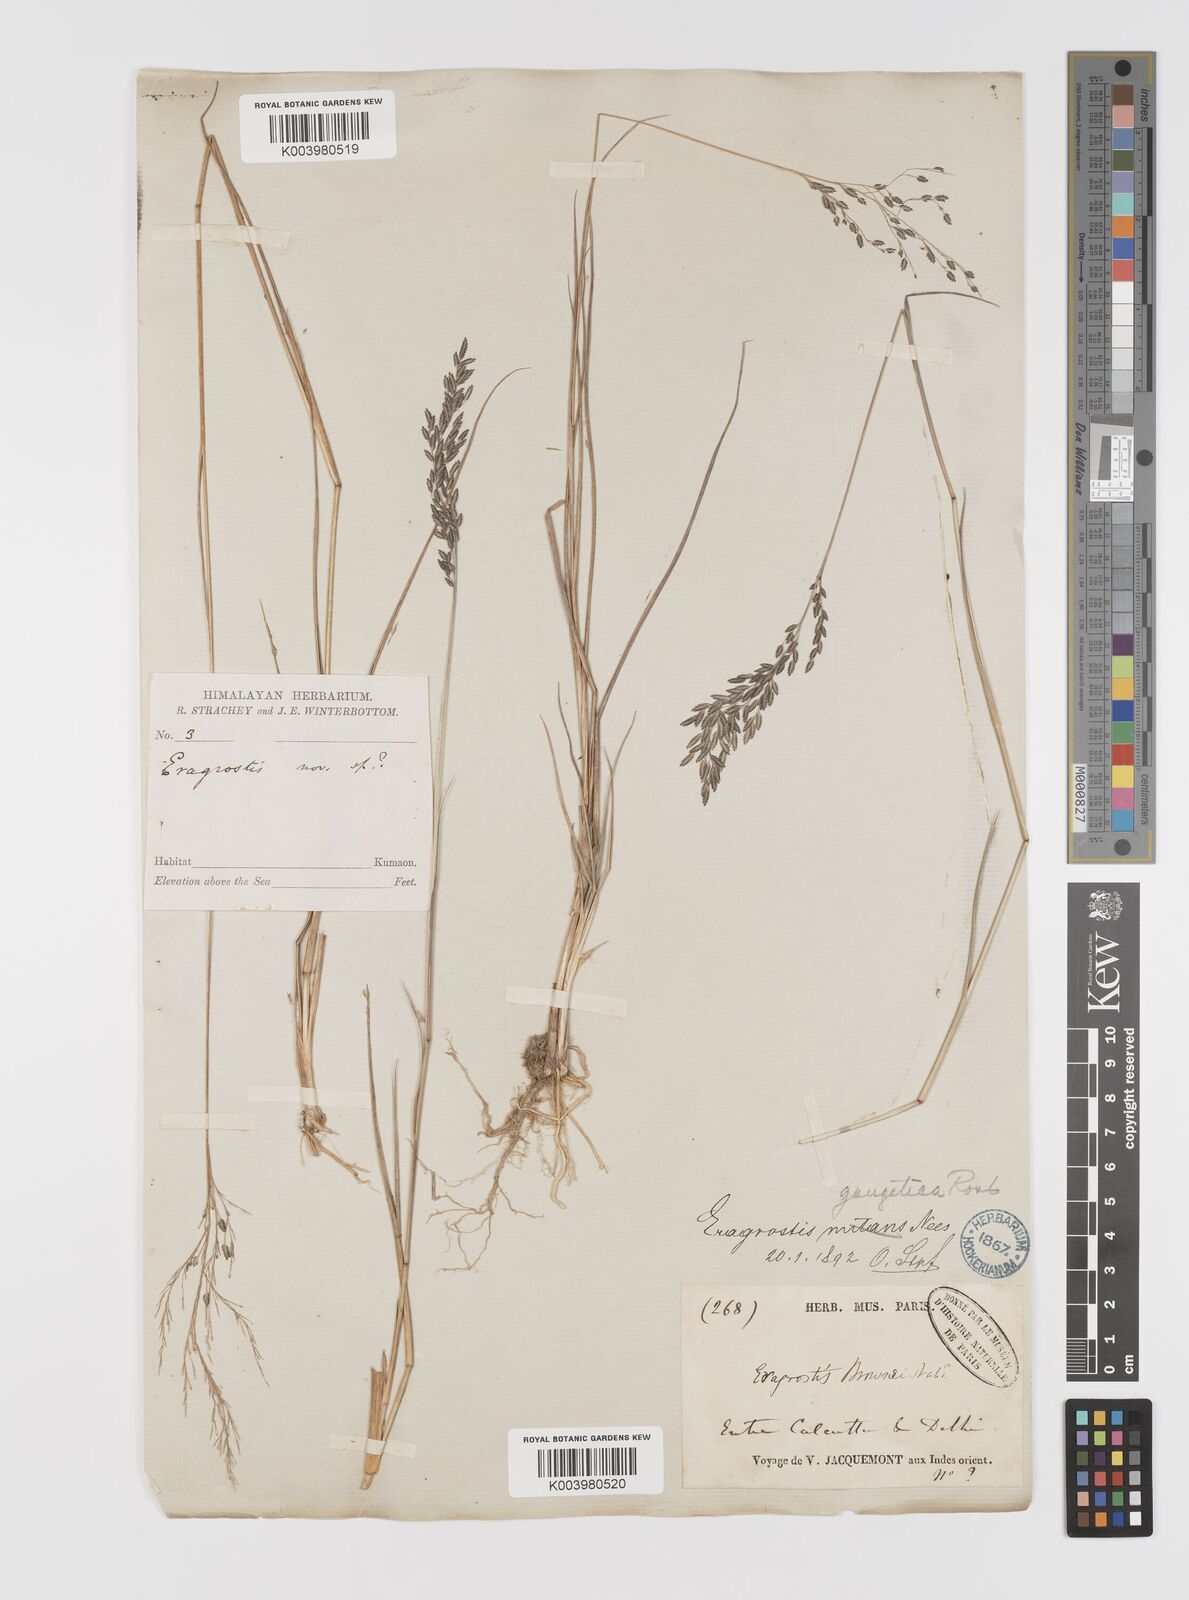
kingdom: Plantae
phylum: Tracheophyta
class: Liliopsida
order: Poales
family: Poaceae
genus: Eragrostis
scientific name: Eragrostis atrovirens
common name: Thalia lovegrass
